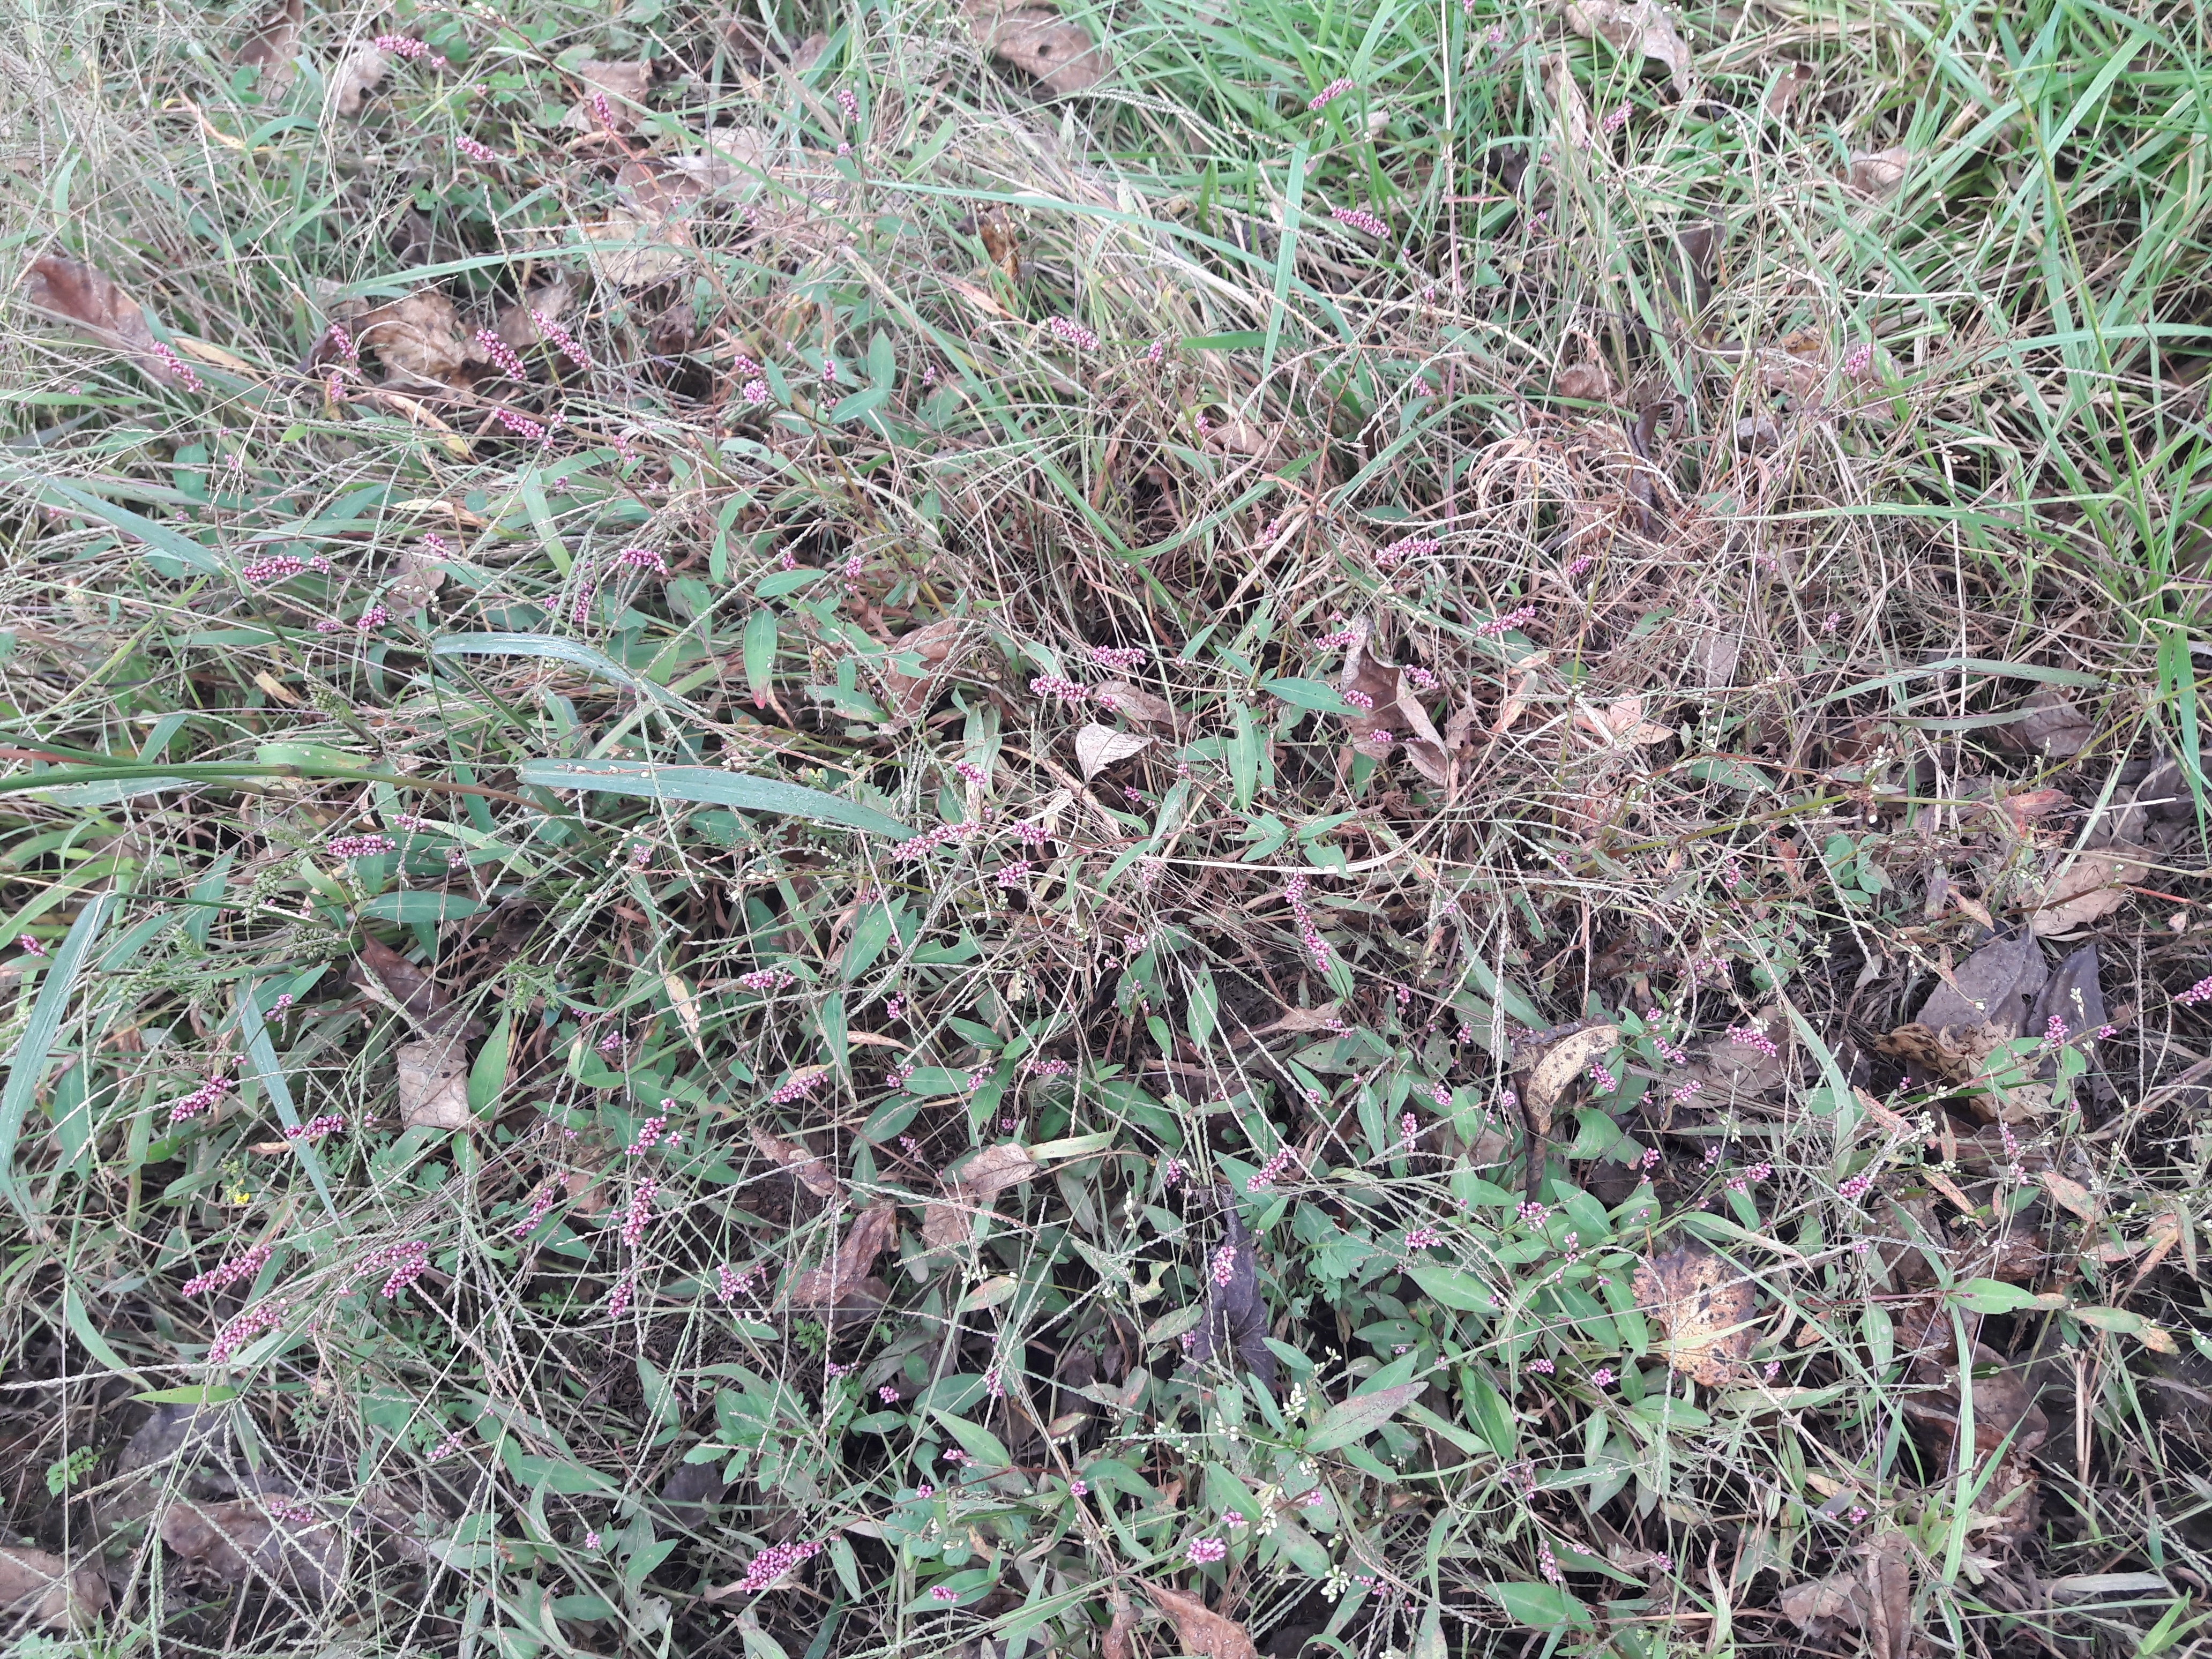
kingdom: Plantae
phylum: Tracheophyta
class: Magnoliopsida
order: Caryophyllales
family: Polygonaceae
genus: Persicaria
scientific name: Persicaria longiseta
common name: Smartweed
